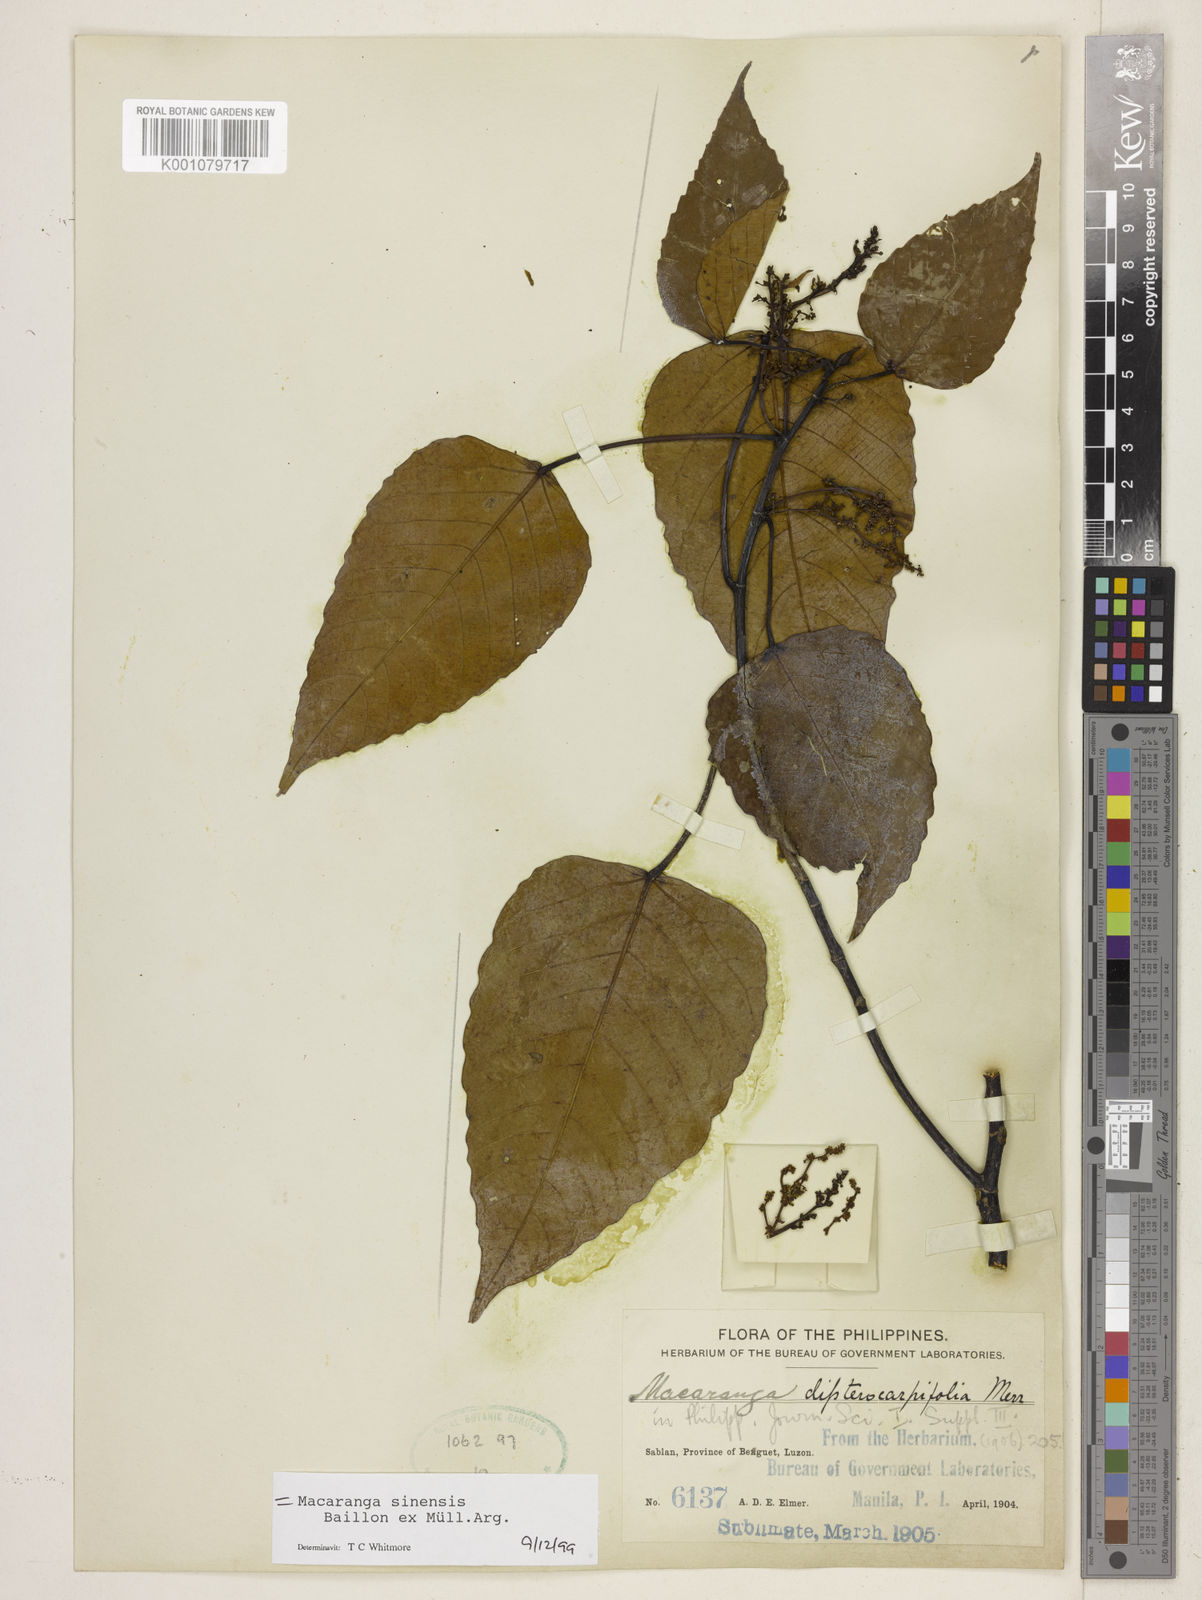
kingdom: Plantae
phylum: Tracheophyta
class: Magnoliopsida
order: Malpighiales
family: Euphorbiaceae
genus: Macaranga
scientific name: Macaranga
